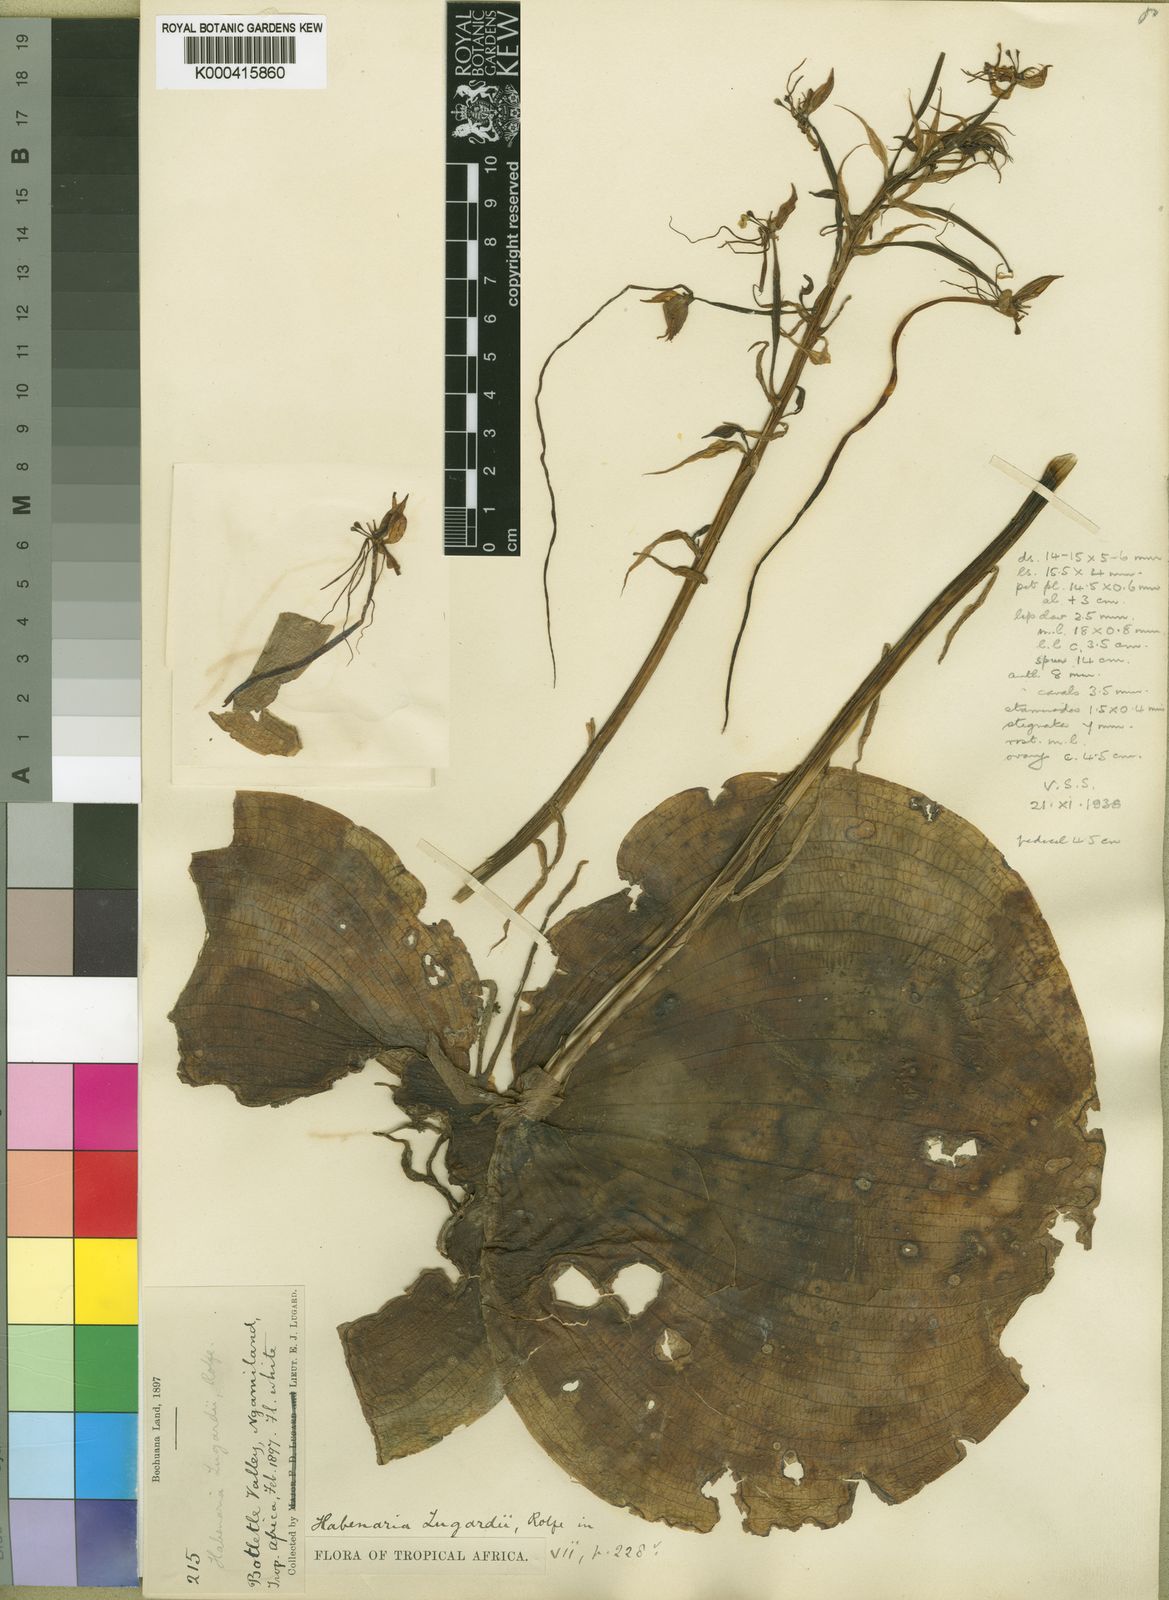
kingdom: Plantae
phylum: Tracheophyta
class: Liliopsida
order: Asparagales
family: Orchidaceae
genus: Habenaria
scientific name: Habenaria armatissima
